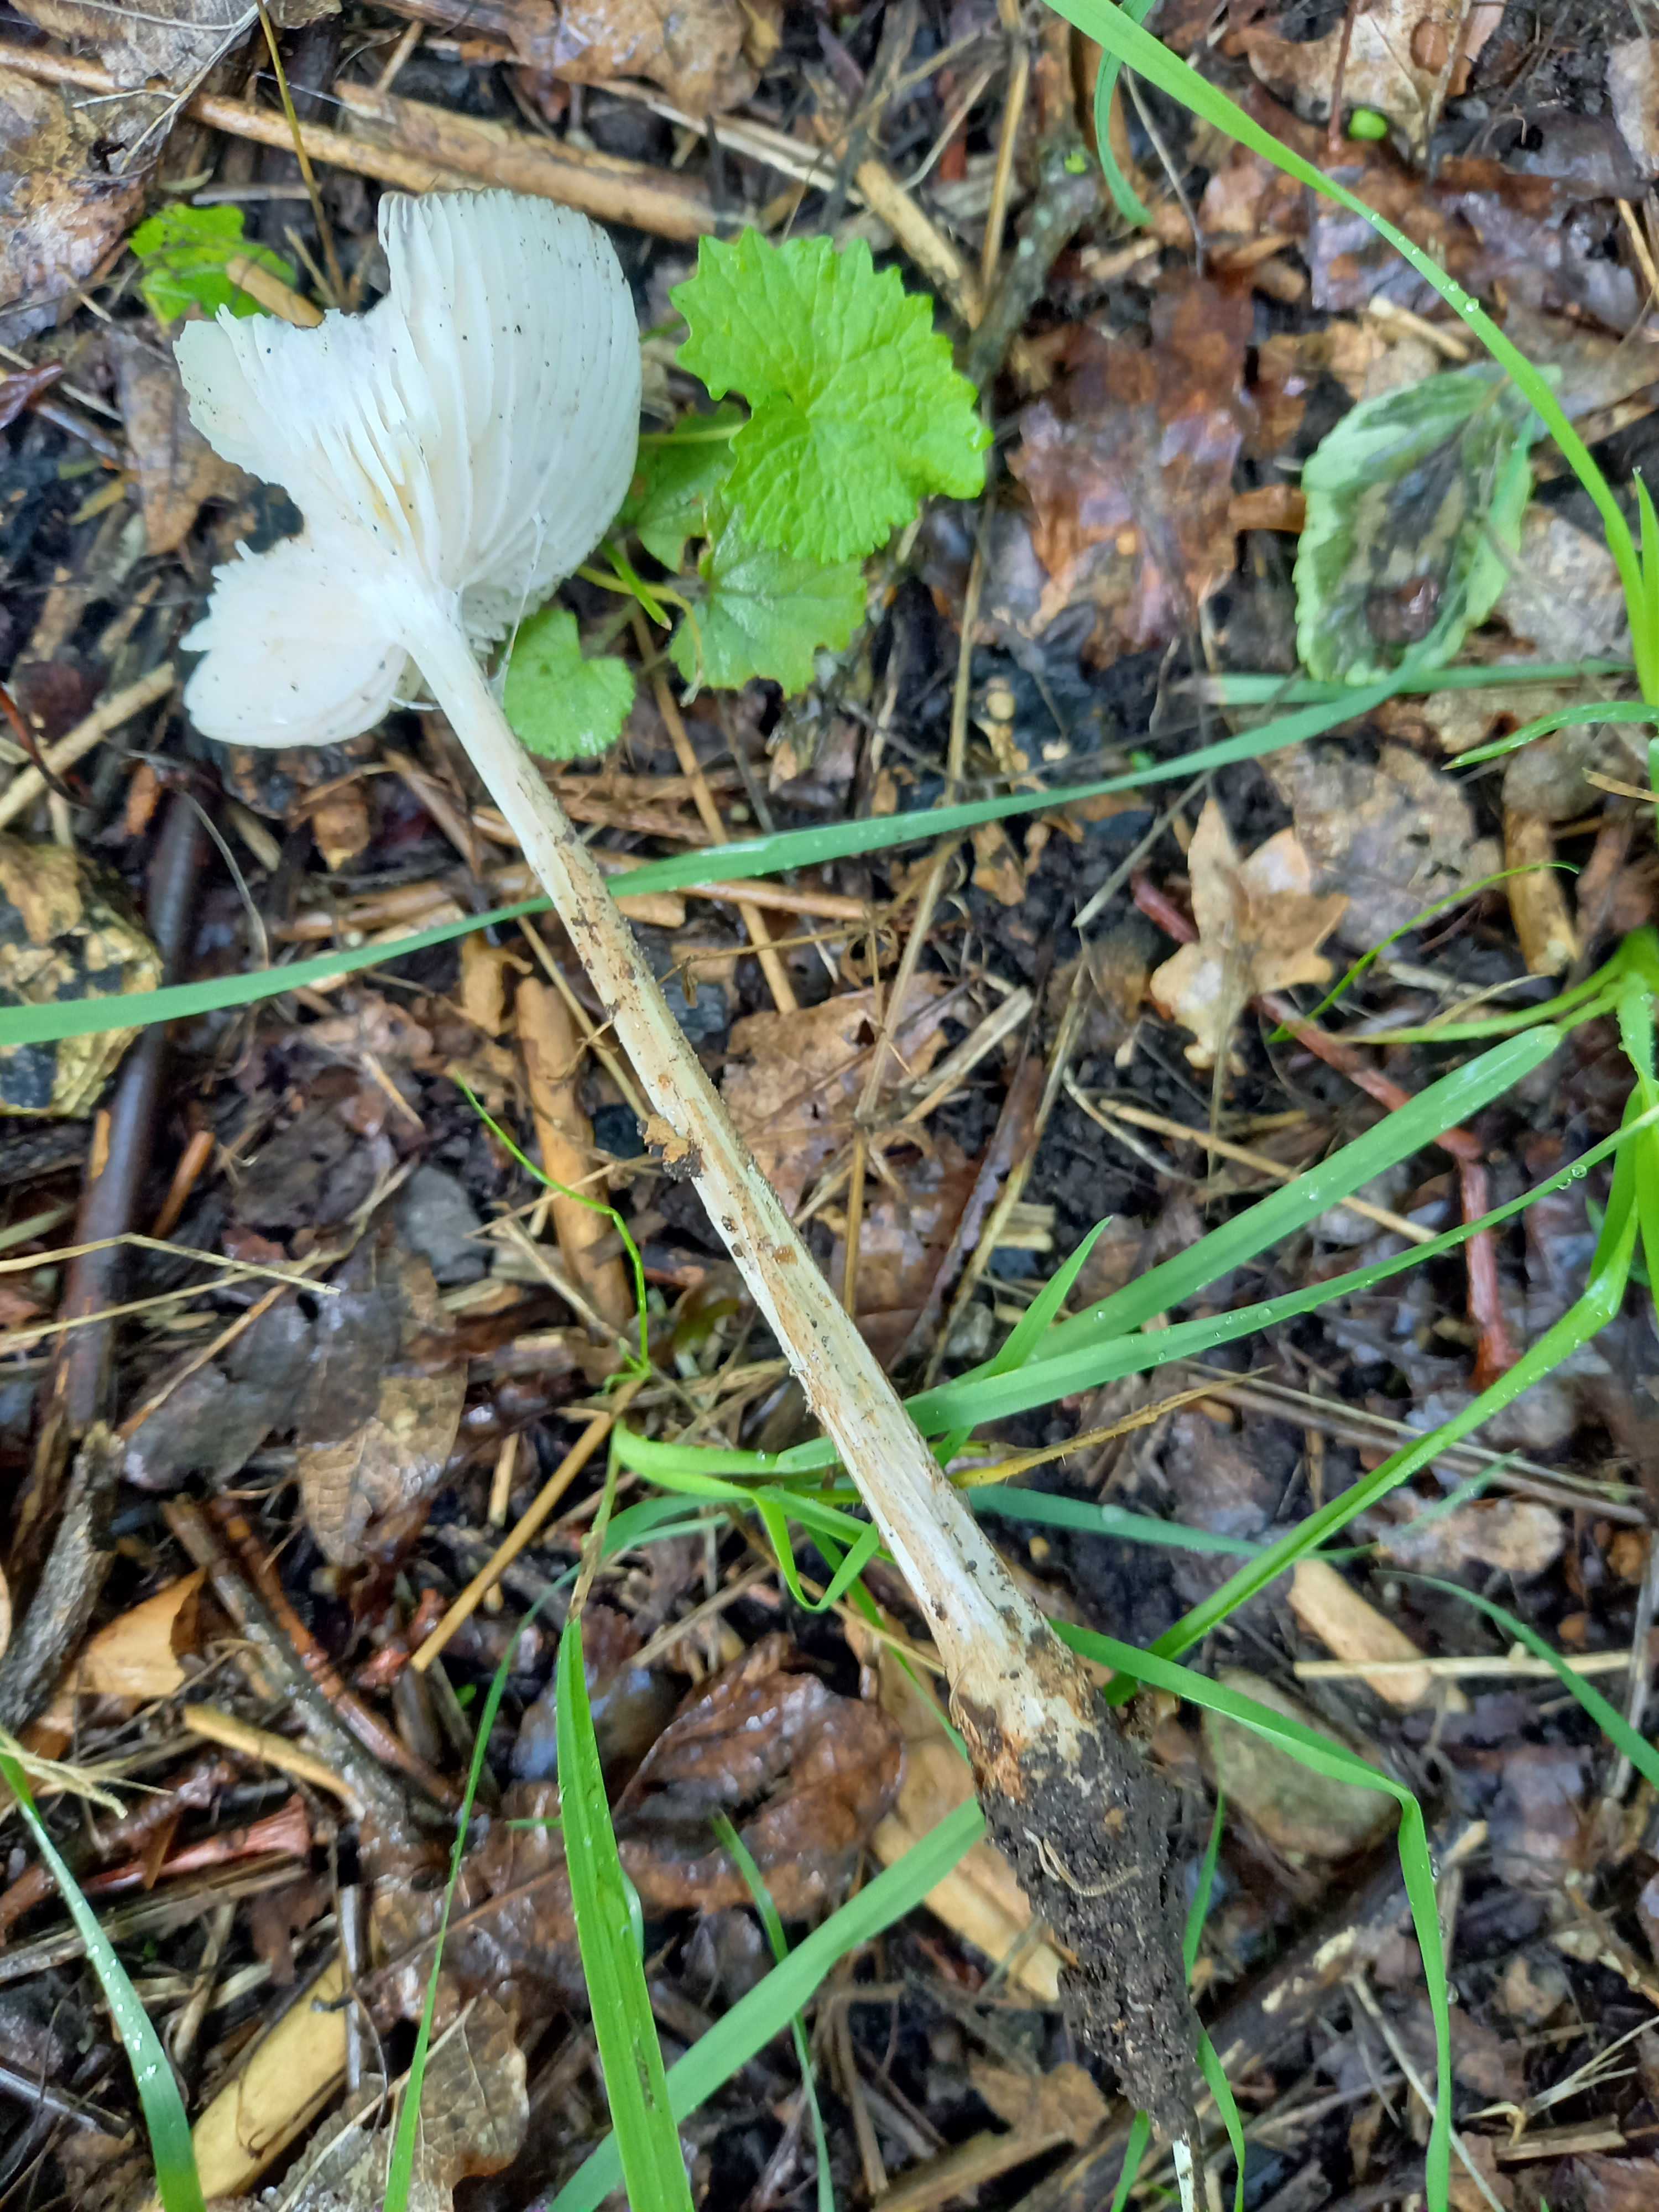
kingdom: Fungi
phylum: Basidiomycota
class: Agaricomycetes
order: Agaricales
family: Physalacriaceae
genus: Hymenopellis
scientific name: Hymenopellis radicata
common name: almindelig pælerodshat
